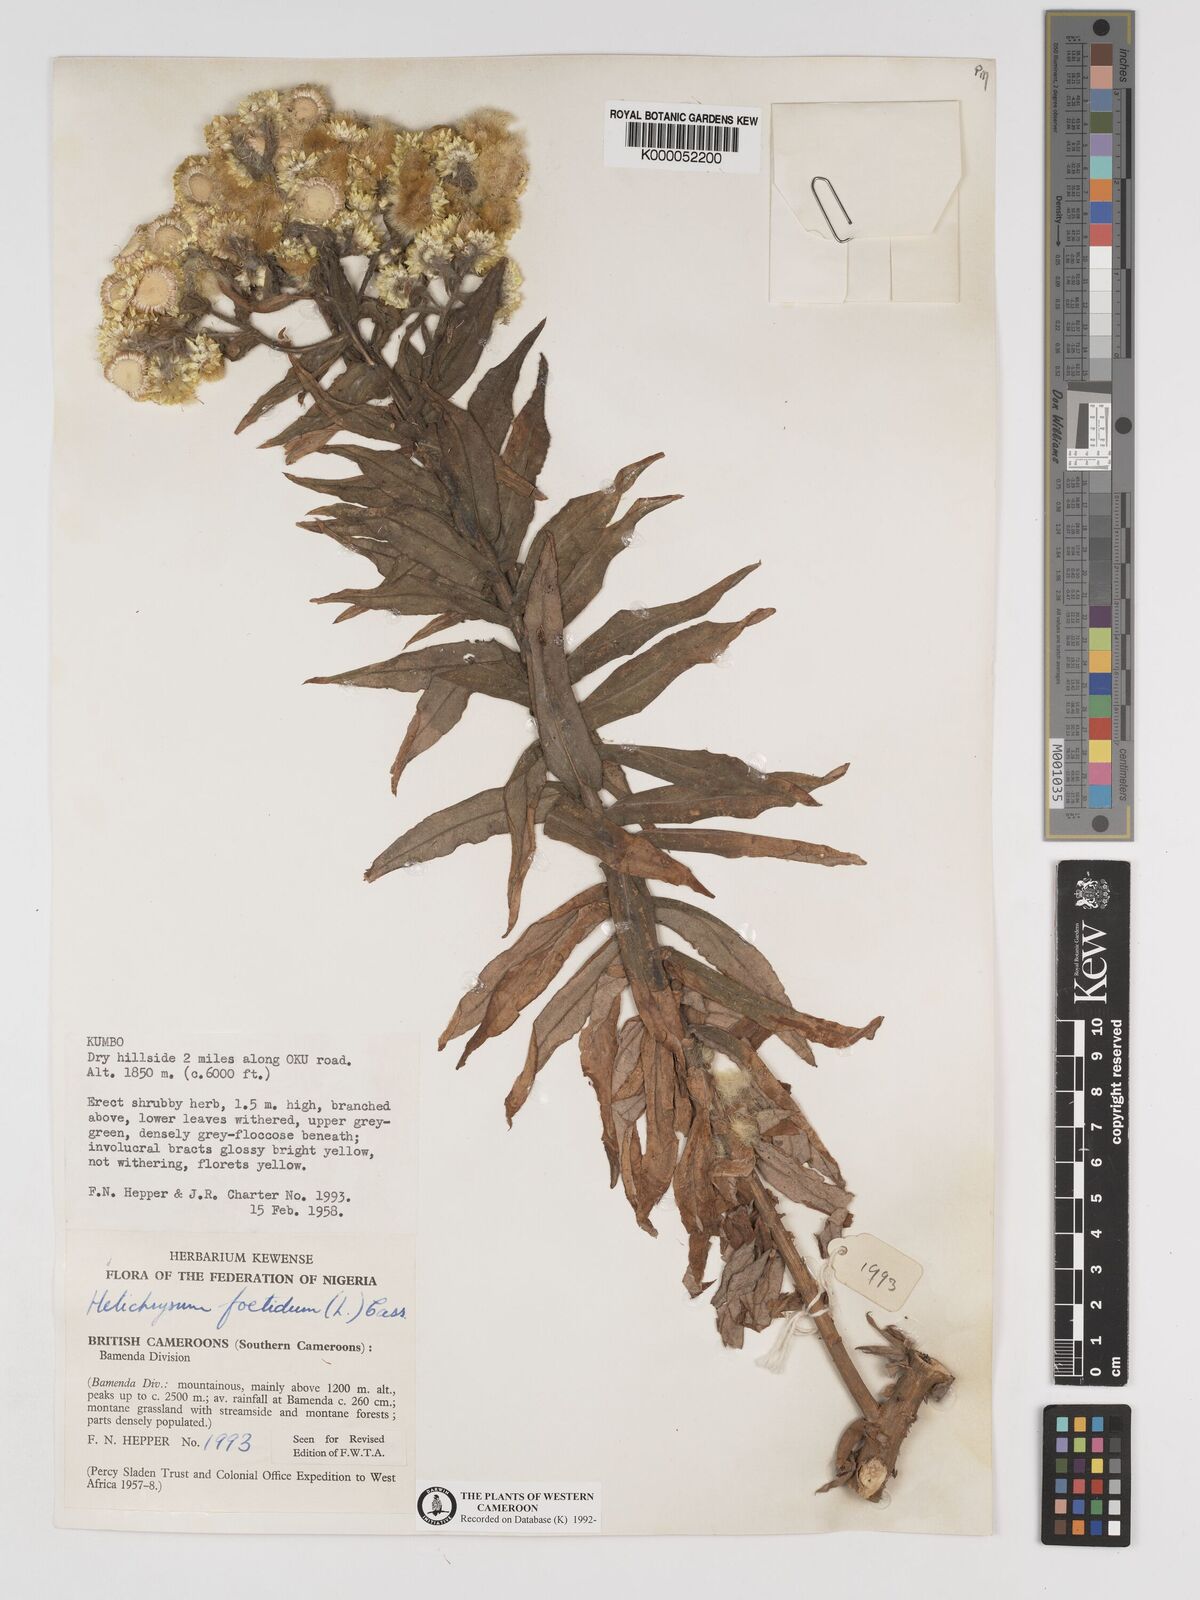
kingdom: Plantae
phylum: Tracheophyta
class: Magnoliopsida
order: Asterales
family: Asteraceae
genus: Helichrysum
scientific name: Helichrysum foetidum
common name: Stinking everlasting
